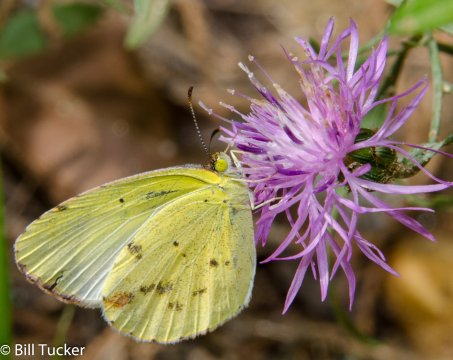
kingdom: Animalia
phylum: Arthropoda
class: Insecta
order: Lepidoptera
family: Pieridae
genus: Pyrisitia
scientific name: Pyrisitia lisa
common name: Little Yellow
